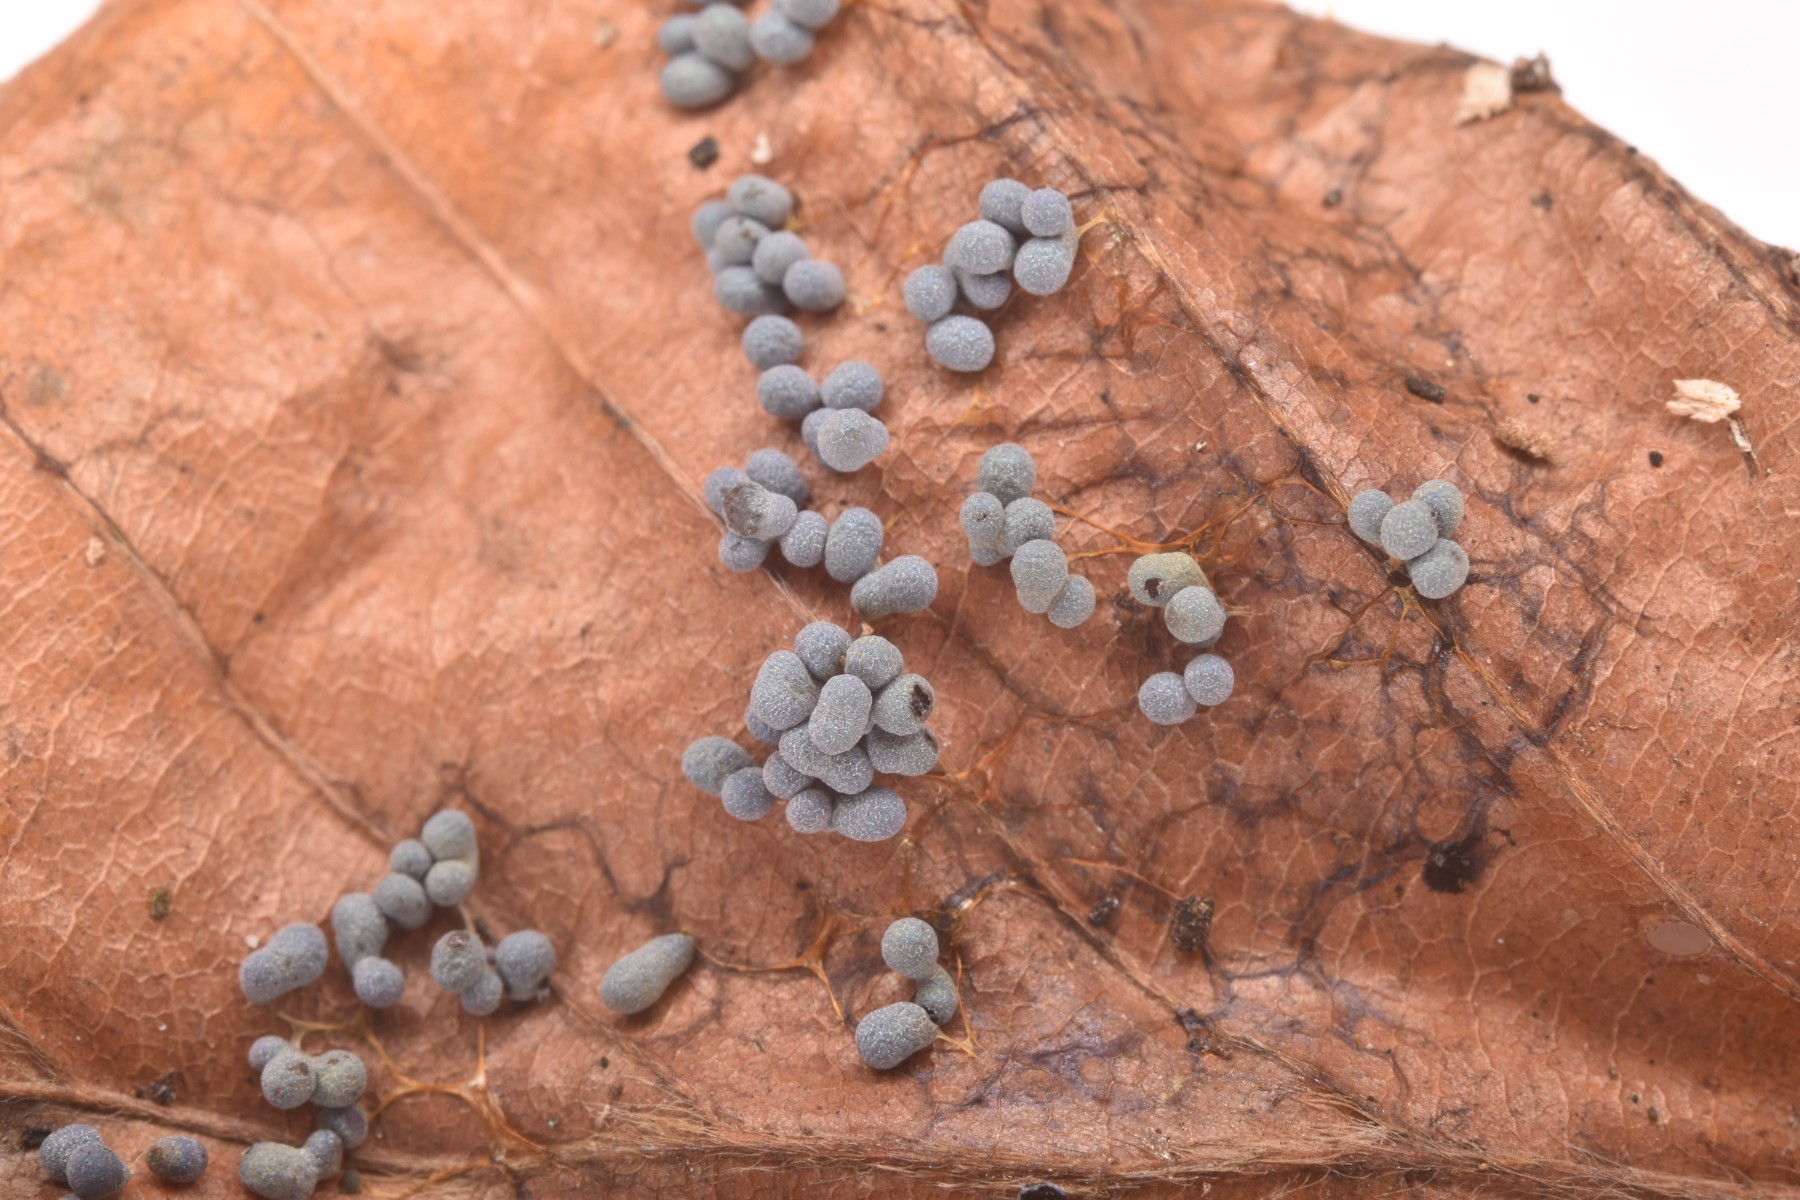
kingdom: Protozoa
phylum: Mycetozoa
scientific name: Mycetozoa
